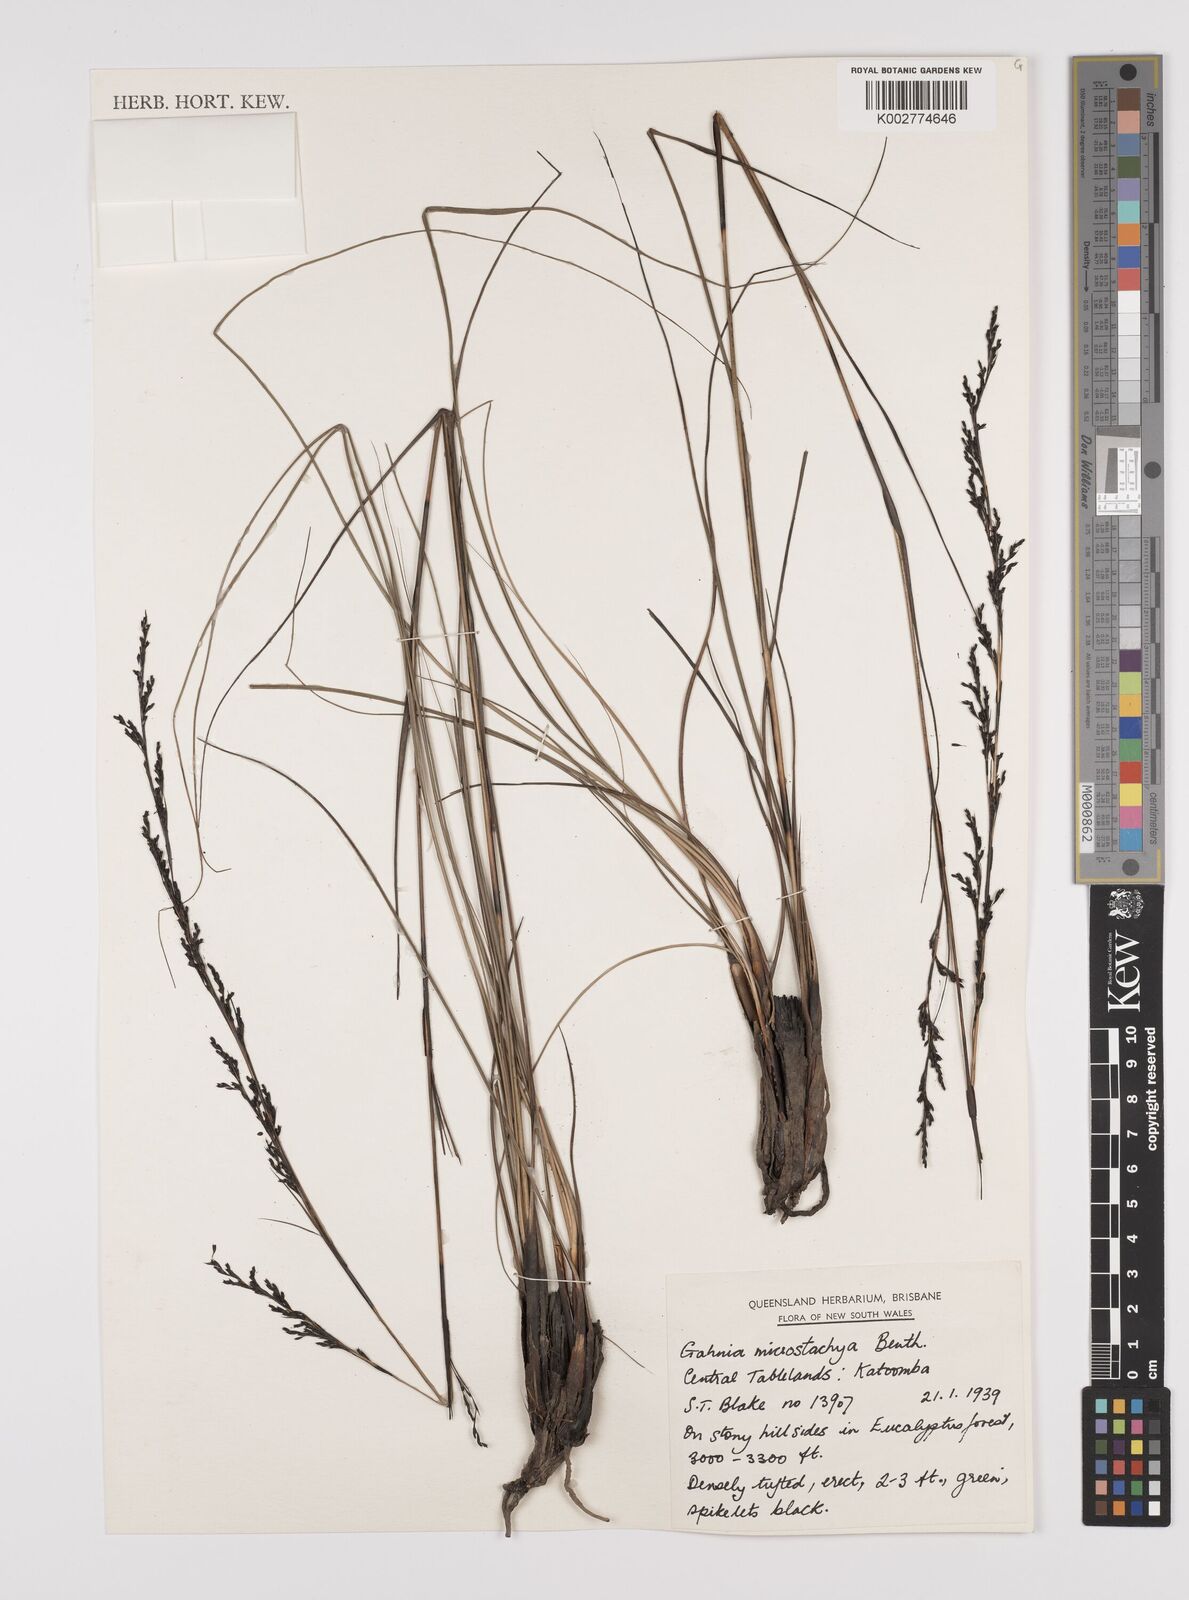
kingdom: Plantae
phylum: Tracheophyta
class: Liliopsida
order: Poales
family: Cyperaceae
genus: Gahnia
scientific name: Gahnia microstachya
